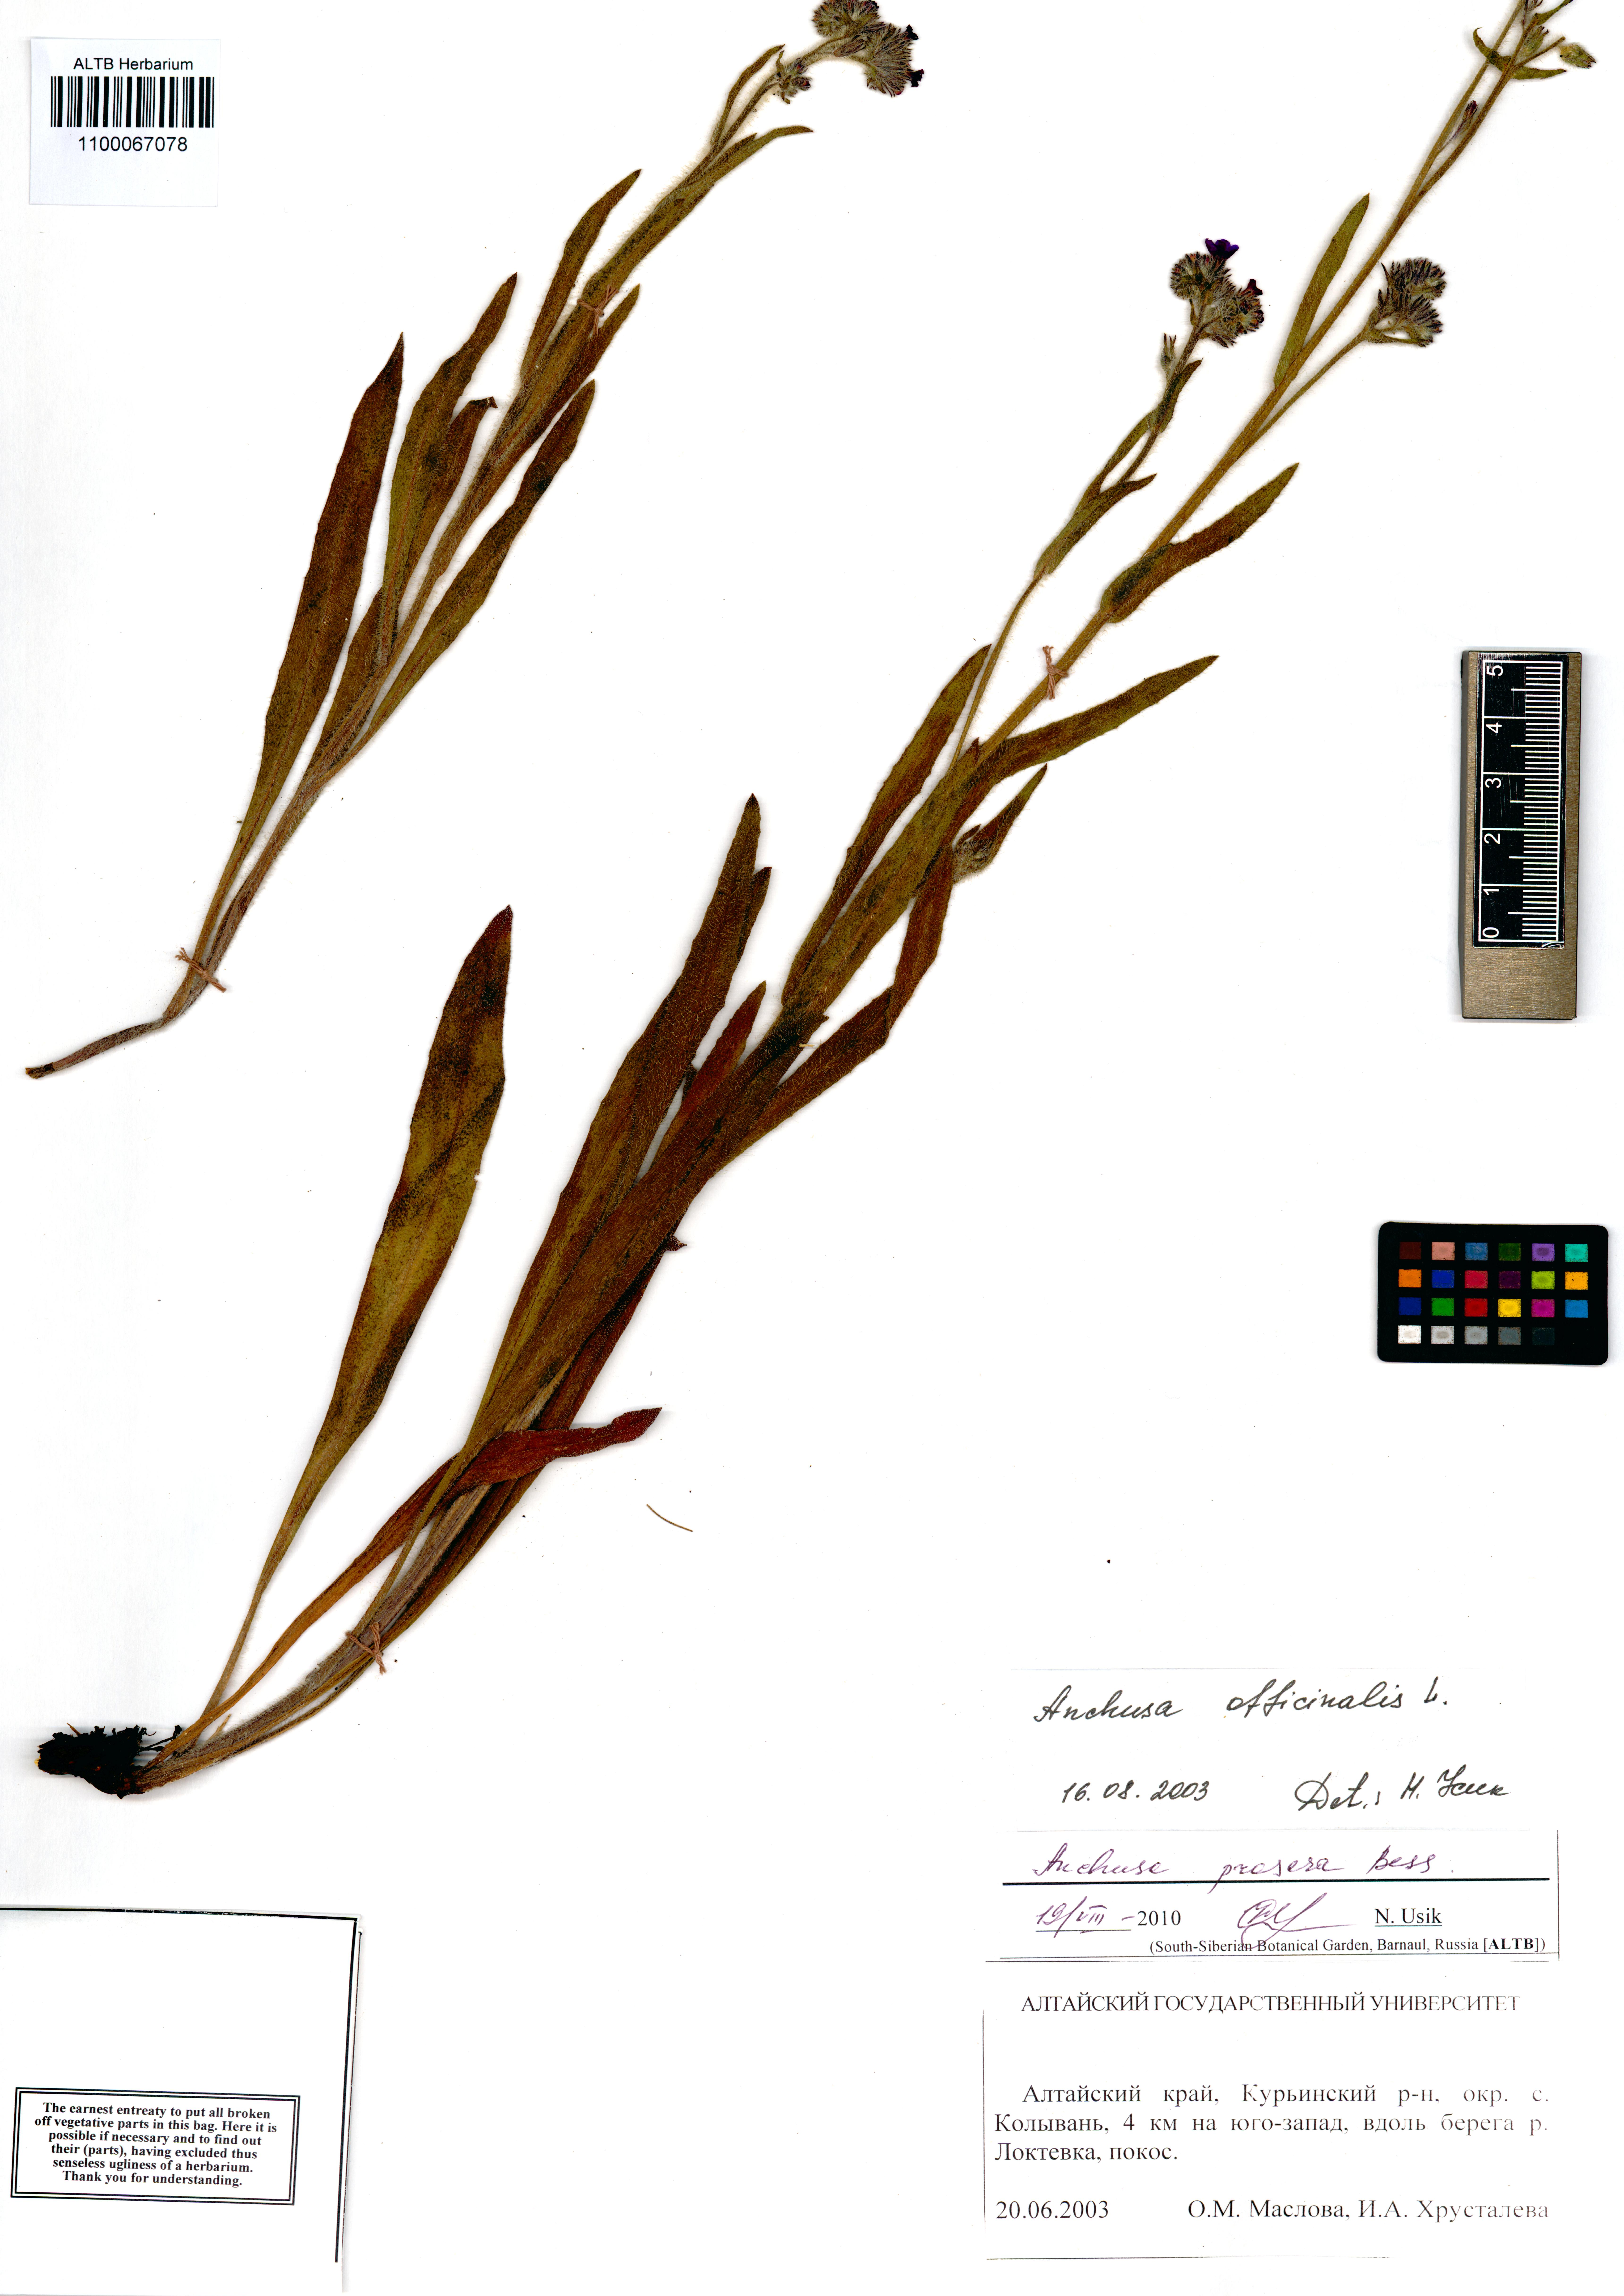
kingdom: Plantae
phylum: Tracheophyta
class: Magnoliopsida
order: Boraginales
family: Boraginaceae
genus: Anchusa
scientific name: Anchusa procera
